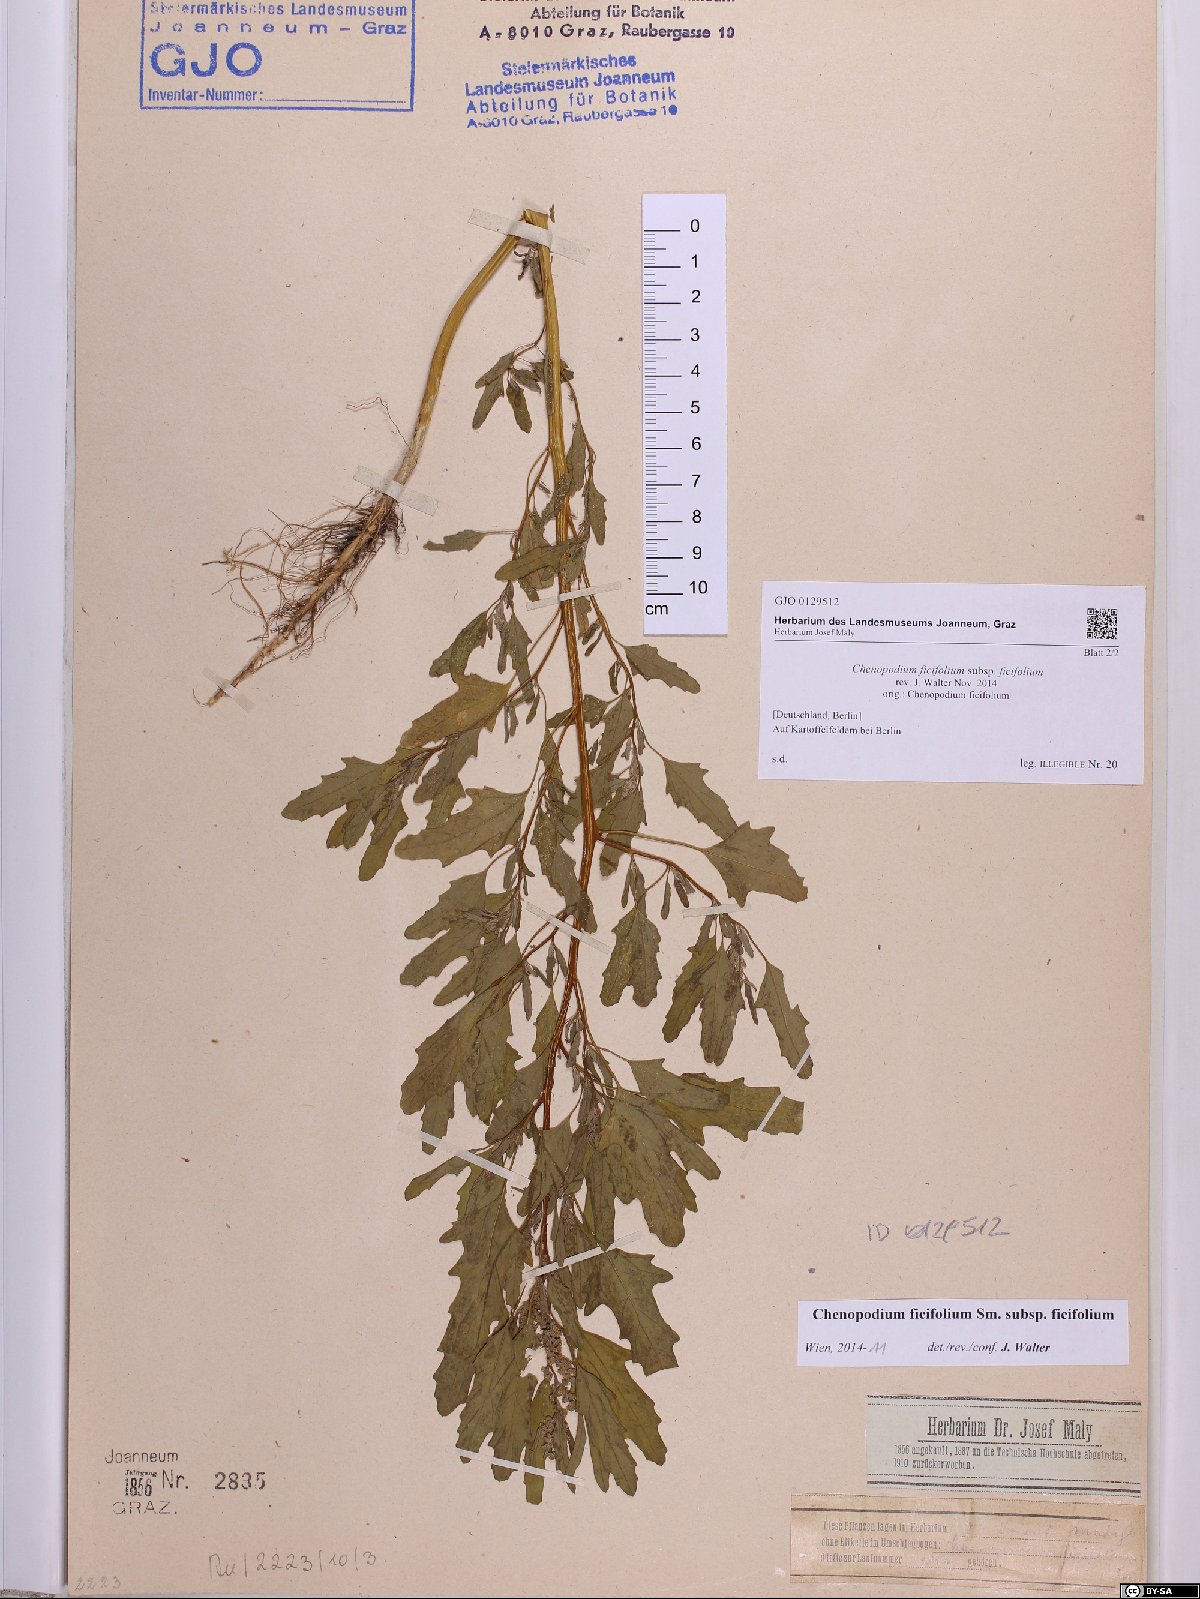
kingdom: Plantae
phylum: Tracheophyta
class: Magnoliopsida
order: Caryophyllales
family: Amaranthaceae
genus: Chenopodium
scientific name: Chenopodium ficifolium
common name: Fig-leaved goosefoot
